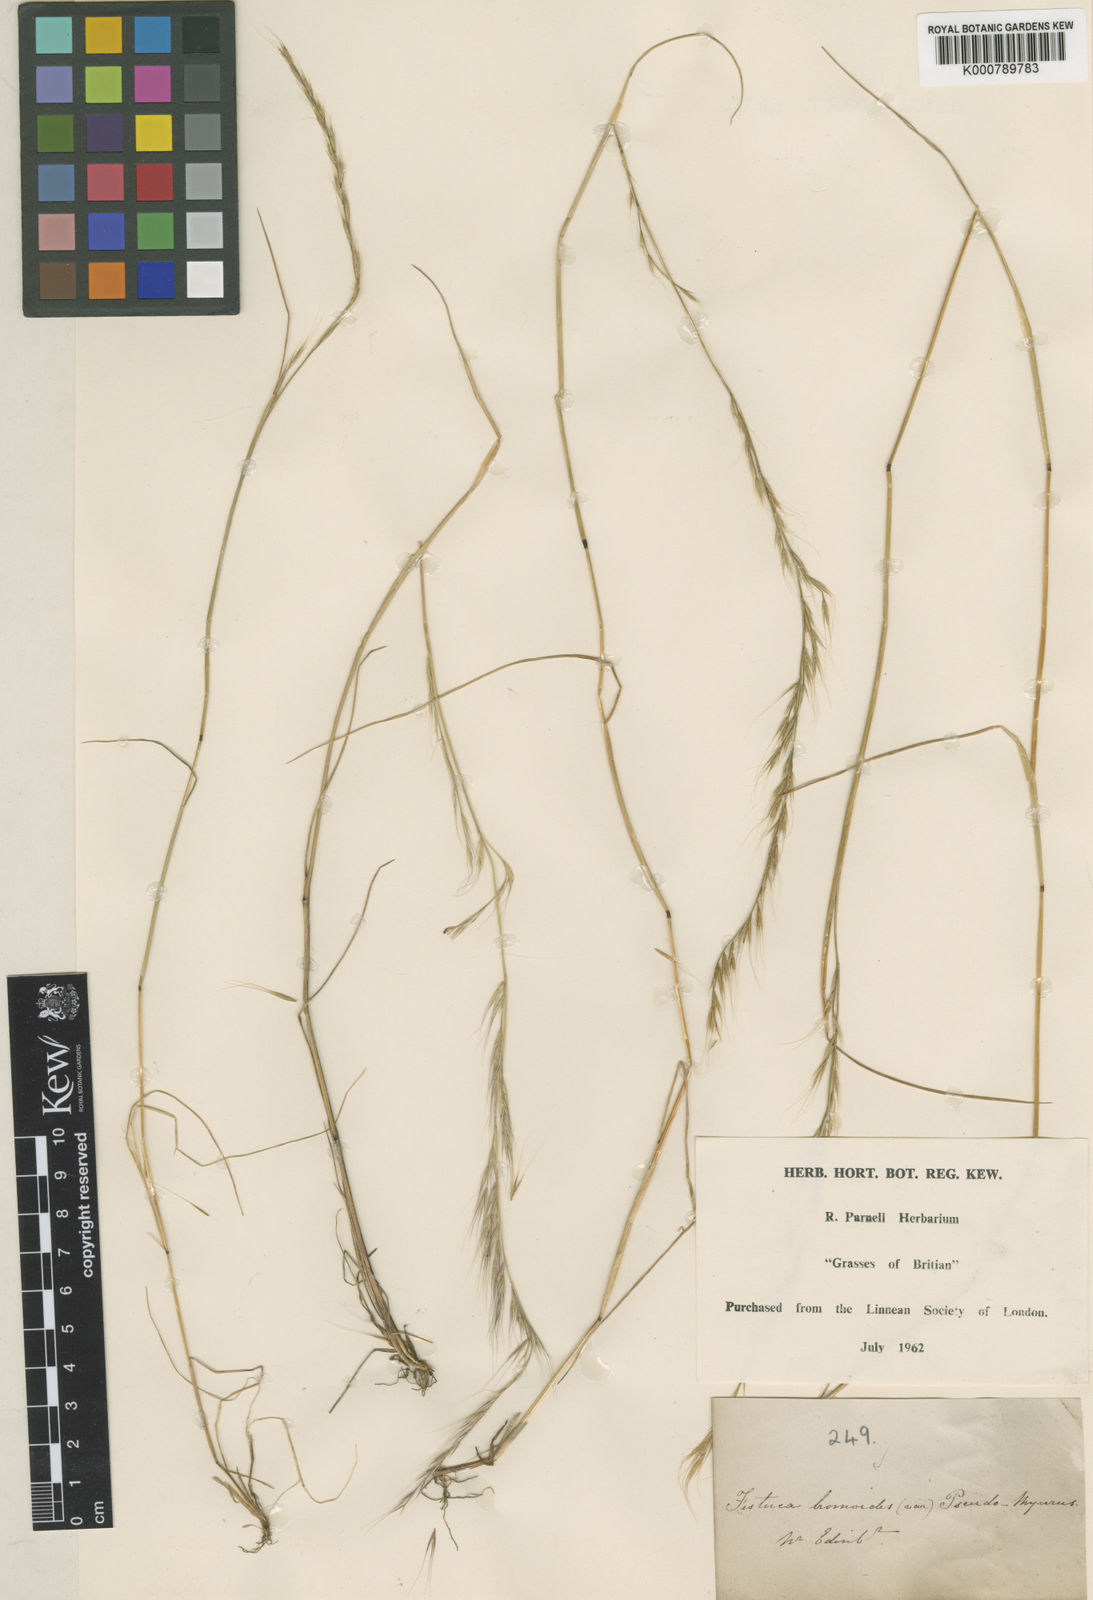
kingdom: Plantae
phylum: Tracheophyta
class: Liliopsida
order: Poales
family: Poaceae
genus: Festuca
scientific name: Festuca bromoides
